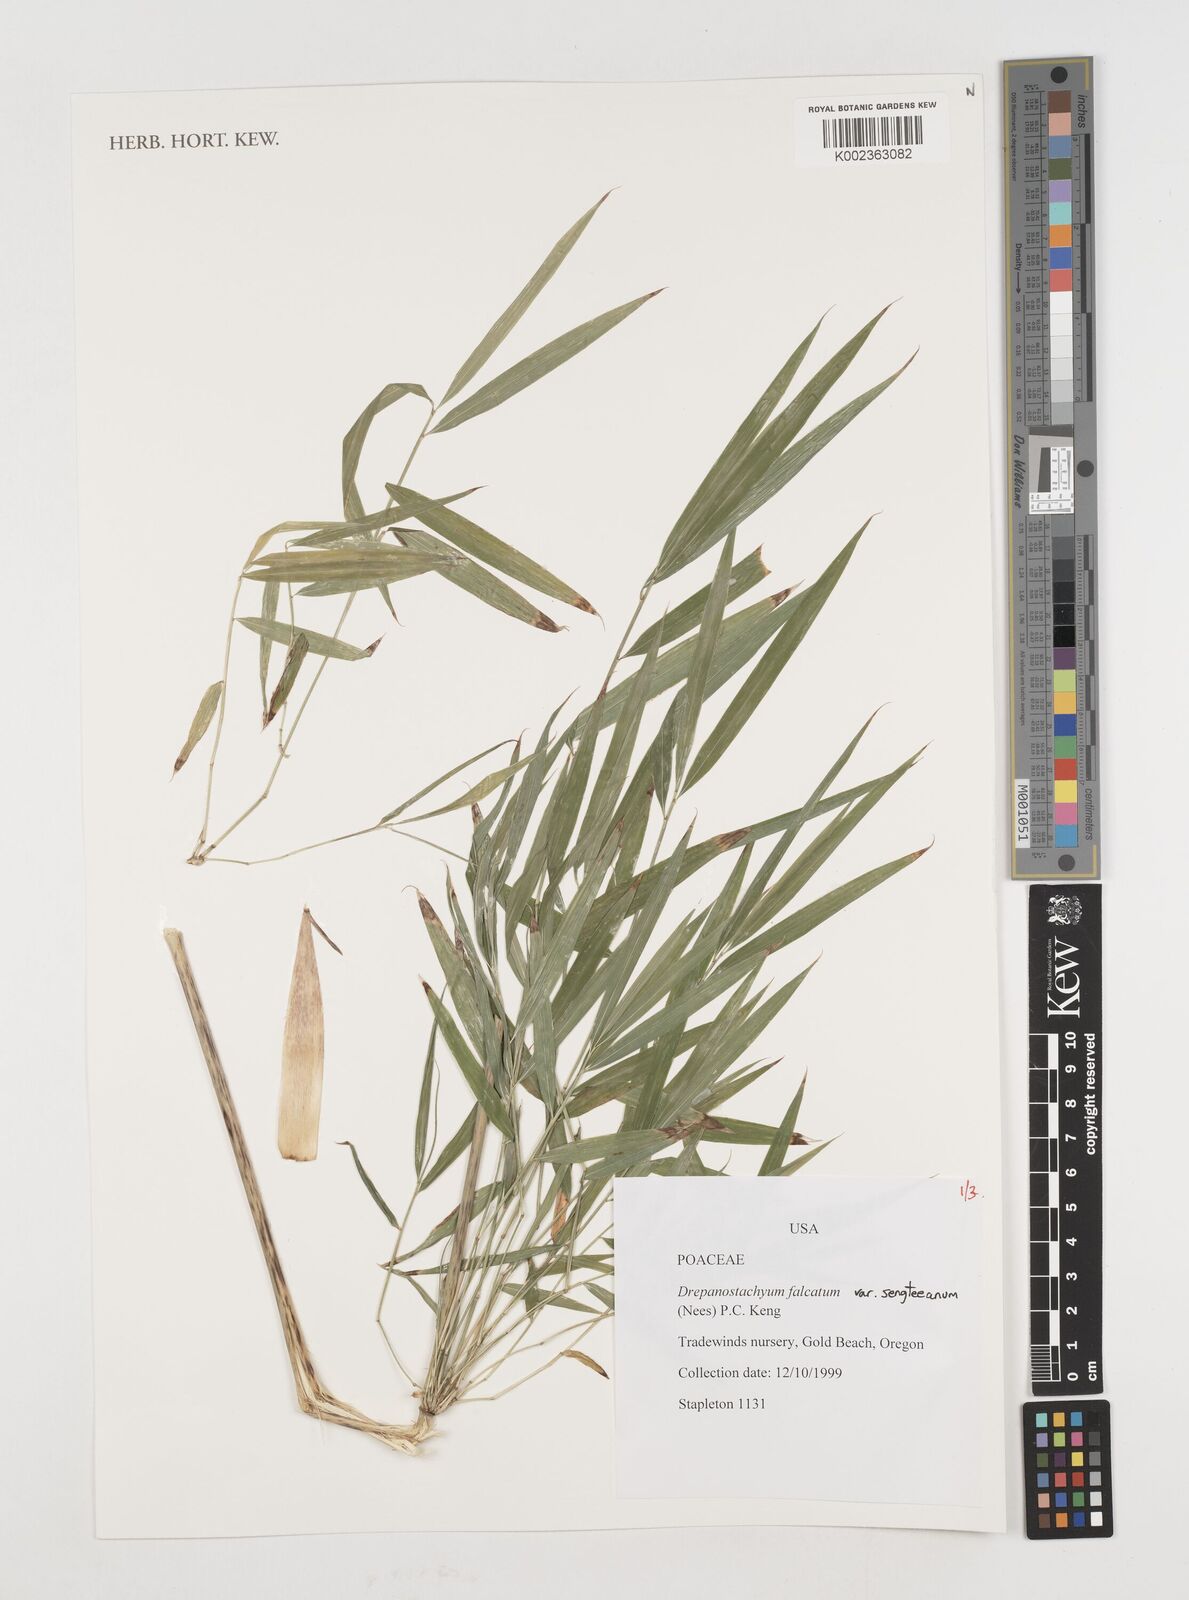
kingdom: Plantae
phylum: Tracheophyta
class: Liliopsida
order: Poales
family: Poaceae
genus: Drepanostachyum
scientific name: Drepanostachyum falcatum
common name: Himalayan bamboo
